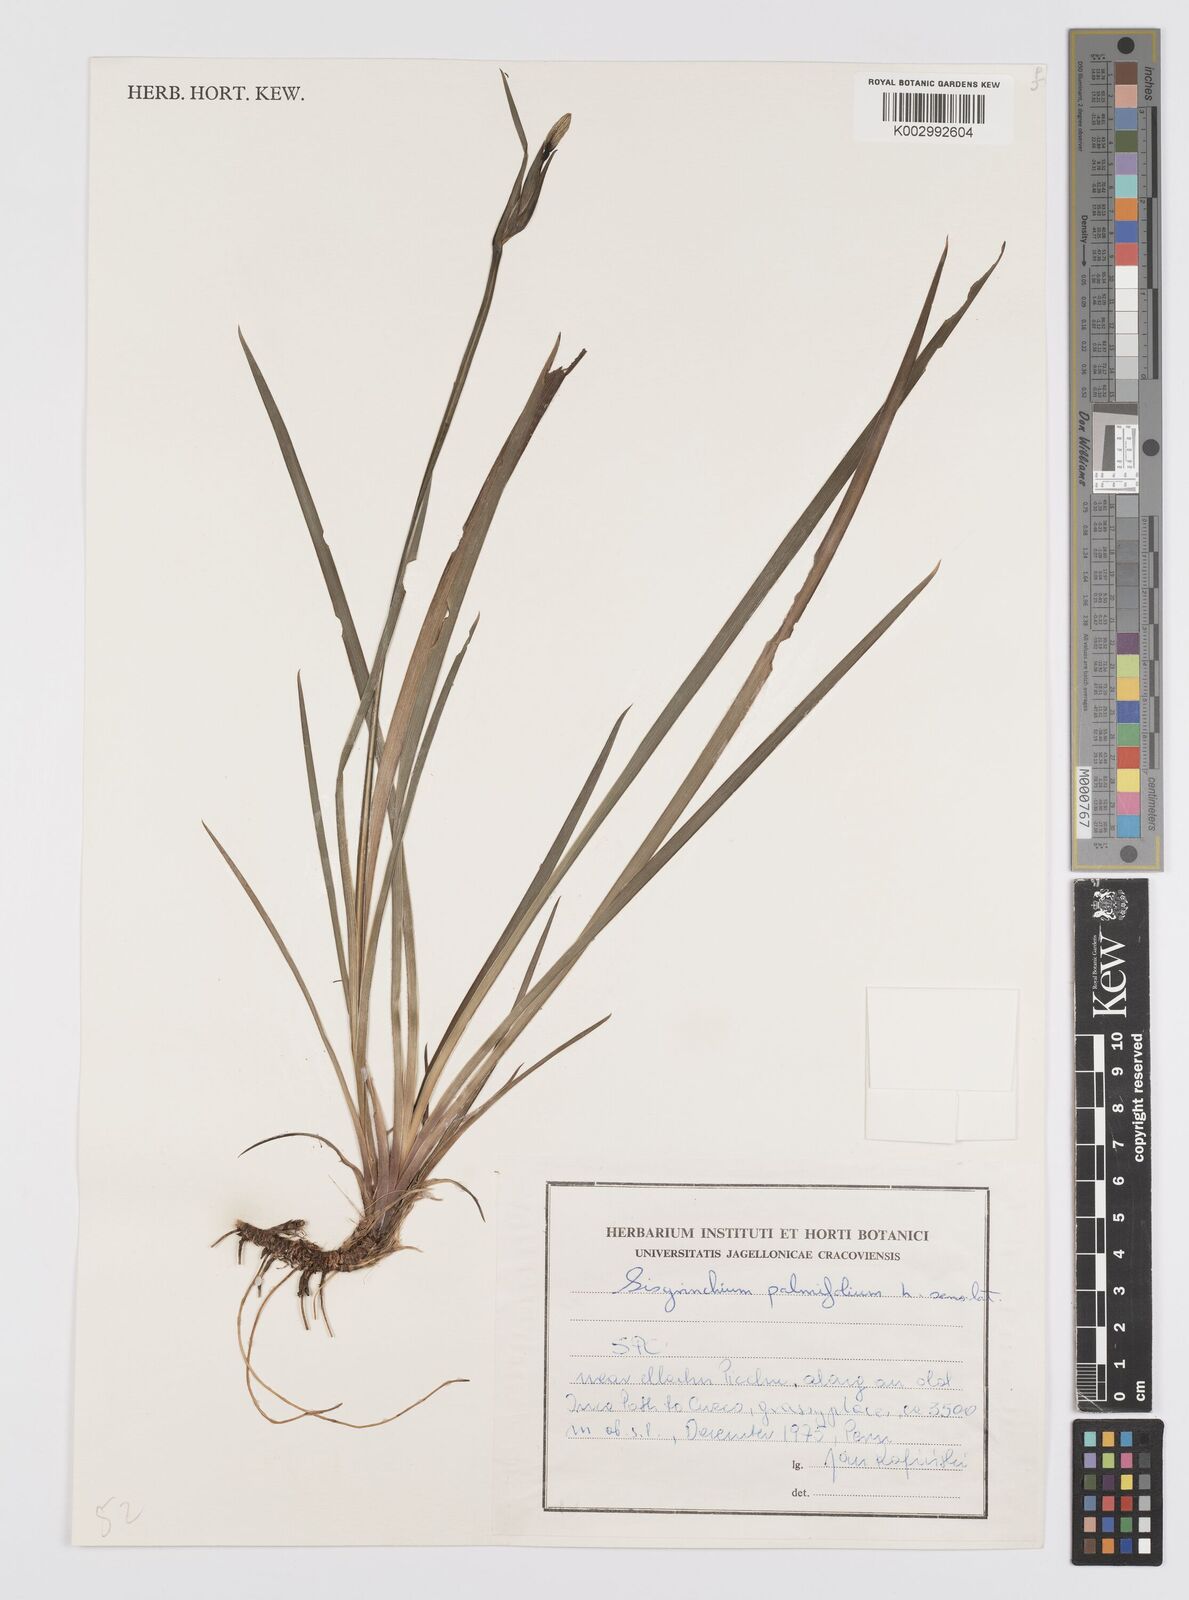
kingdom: Plantae
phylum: Tracheophyta
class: Liliopsida
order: Asparagales
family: Iridaceae
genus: Sisyrinchium
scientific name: Sisyrinchium palmifolium
